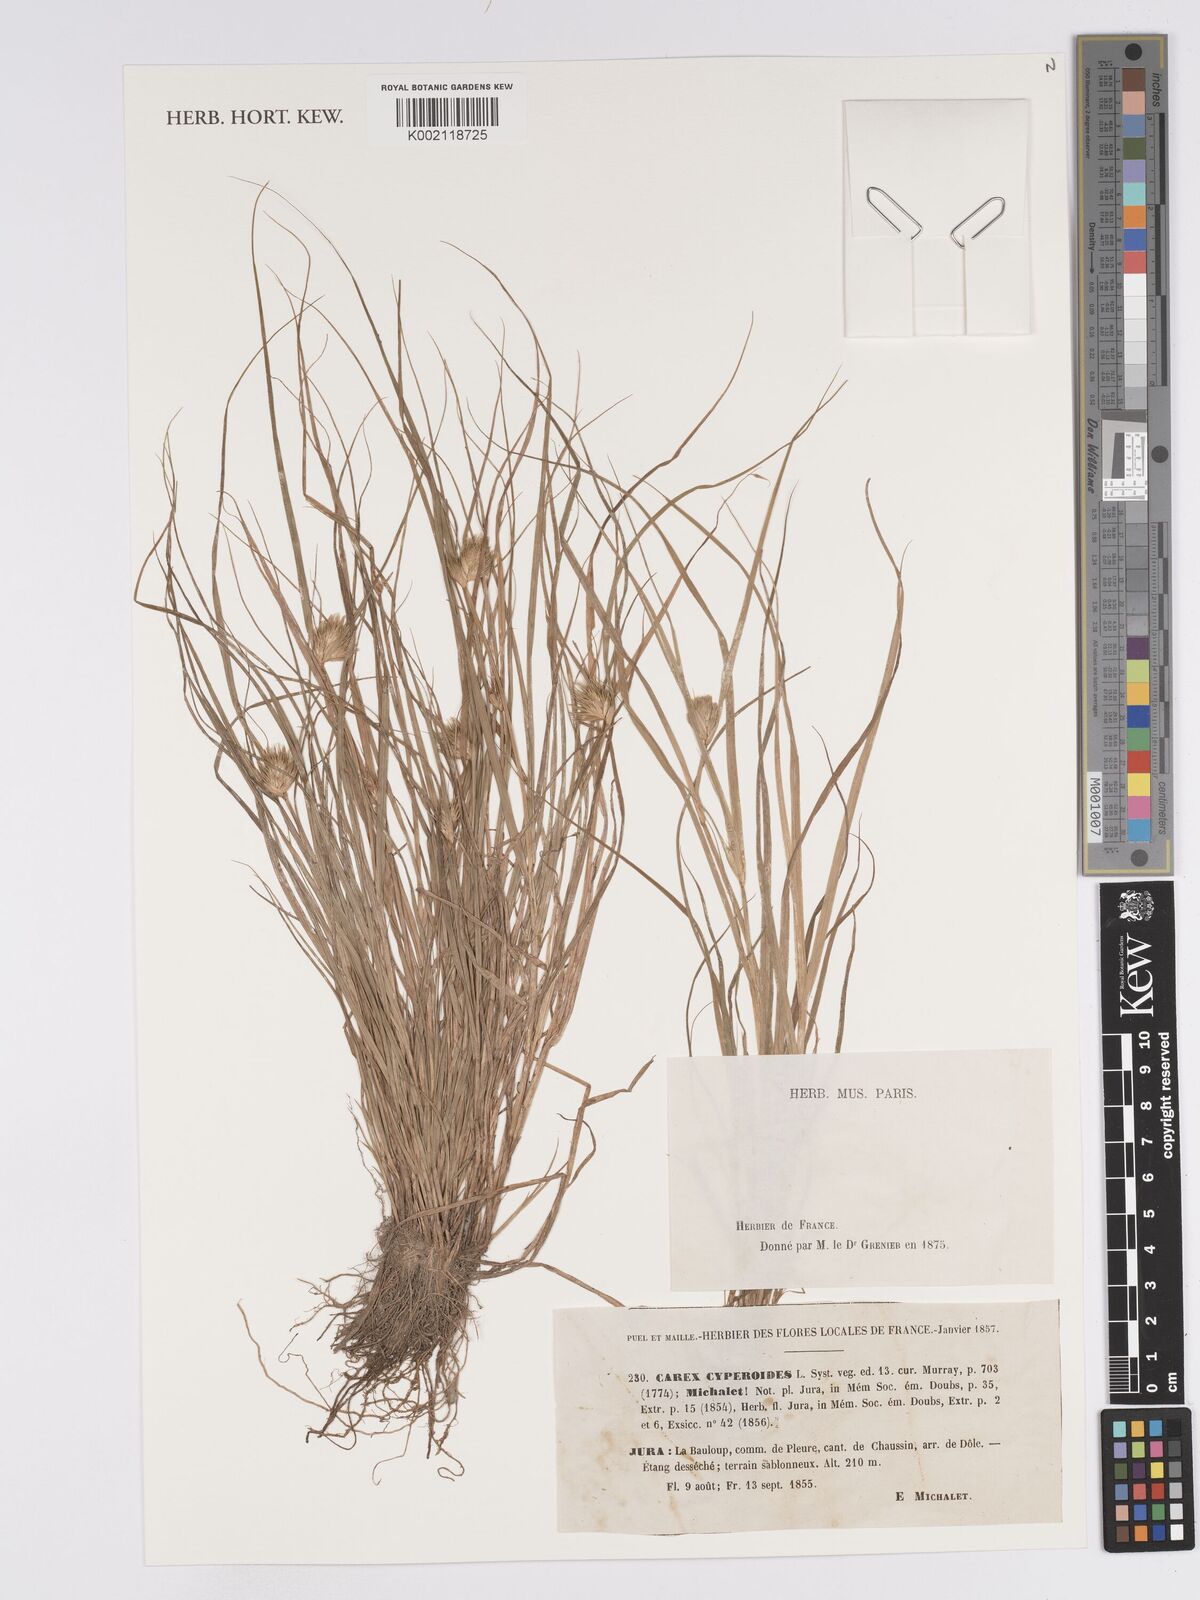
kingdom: Plantae
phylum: Tracheophyta
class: Liliopsida
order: Poales
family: Cyperaceae
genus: Carex
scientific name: Carex bohemica
